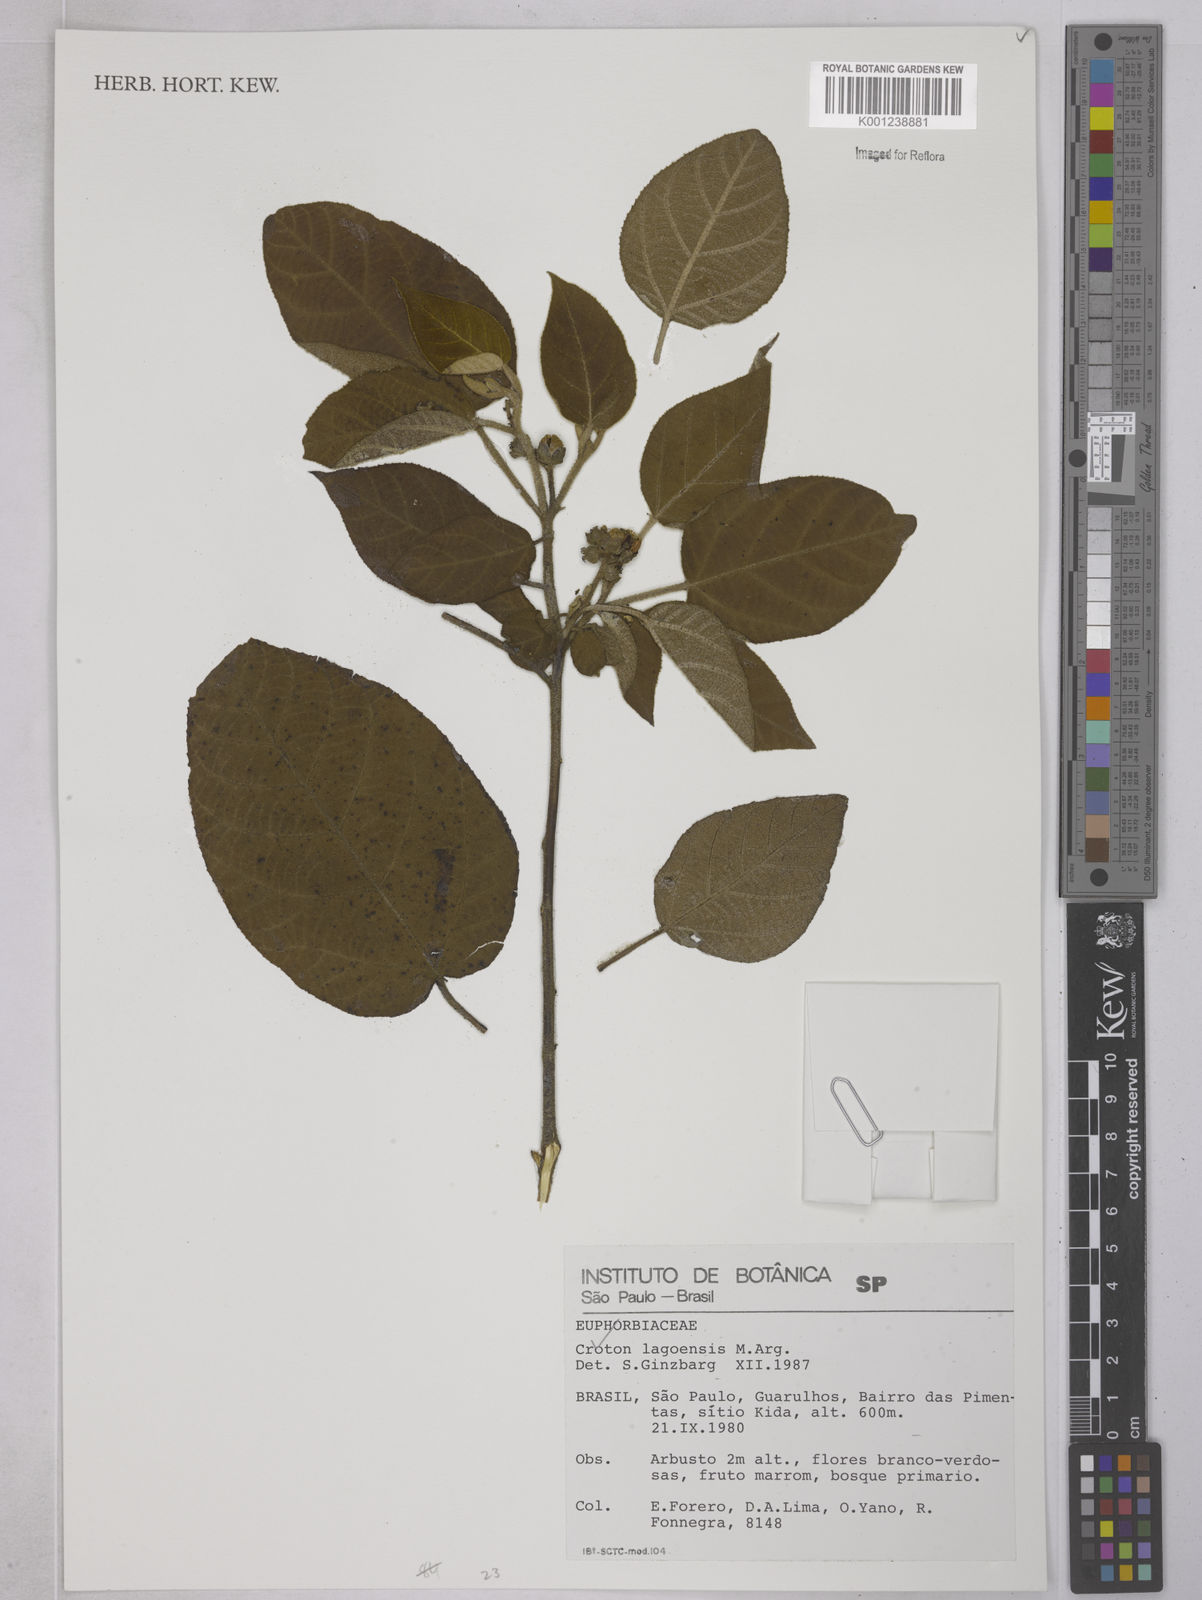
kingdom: Plantae
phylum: Tracheophyta
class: Magnoliopsida
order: Malpighiales
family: Euphorbiaceae
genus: Croton
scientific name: Croton lagoensis
